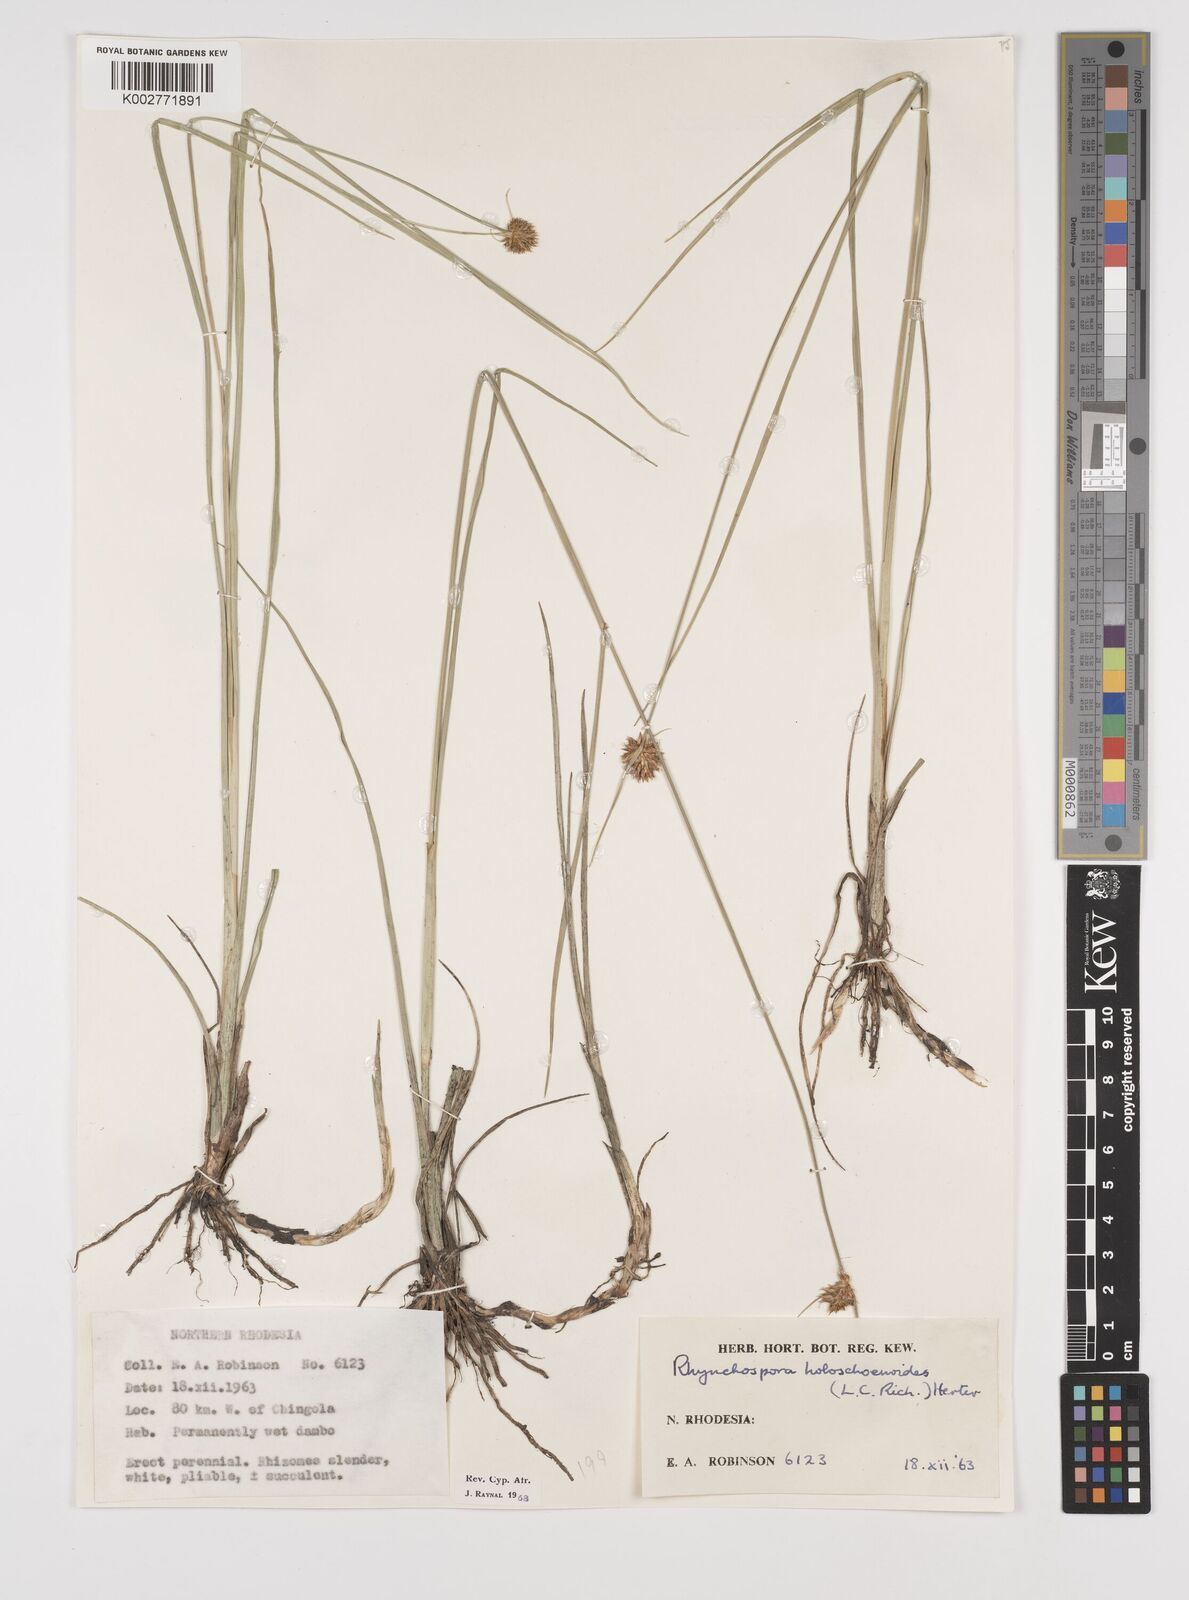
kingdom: Plantae
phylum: Tracheophyta
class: Liliopsida
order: Poales
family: Cyperaceae
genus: Rhynchospora
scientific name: Rhynchospora holoschoenoides
